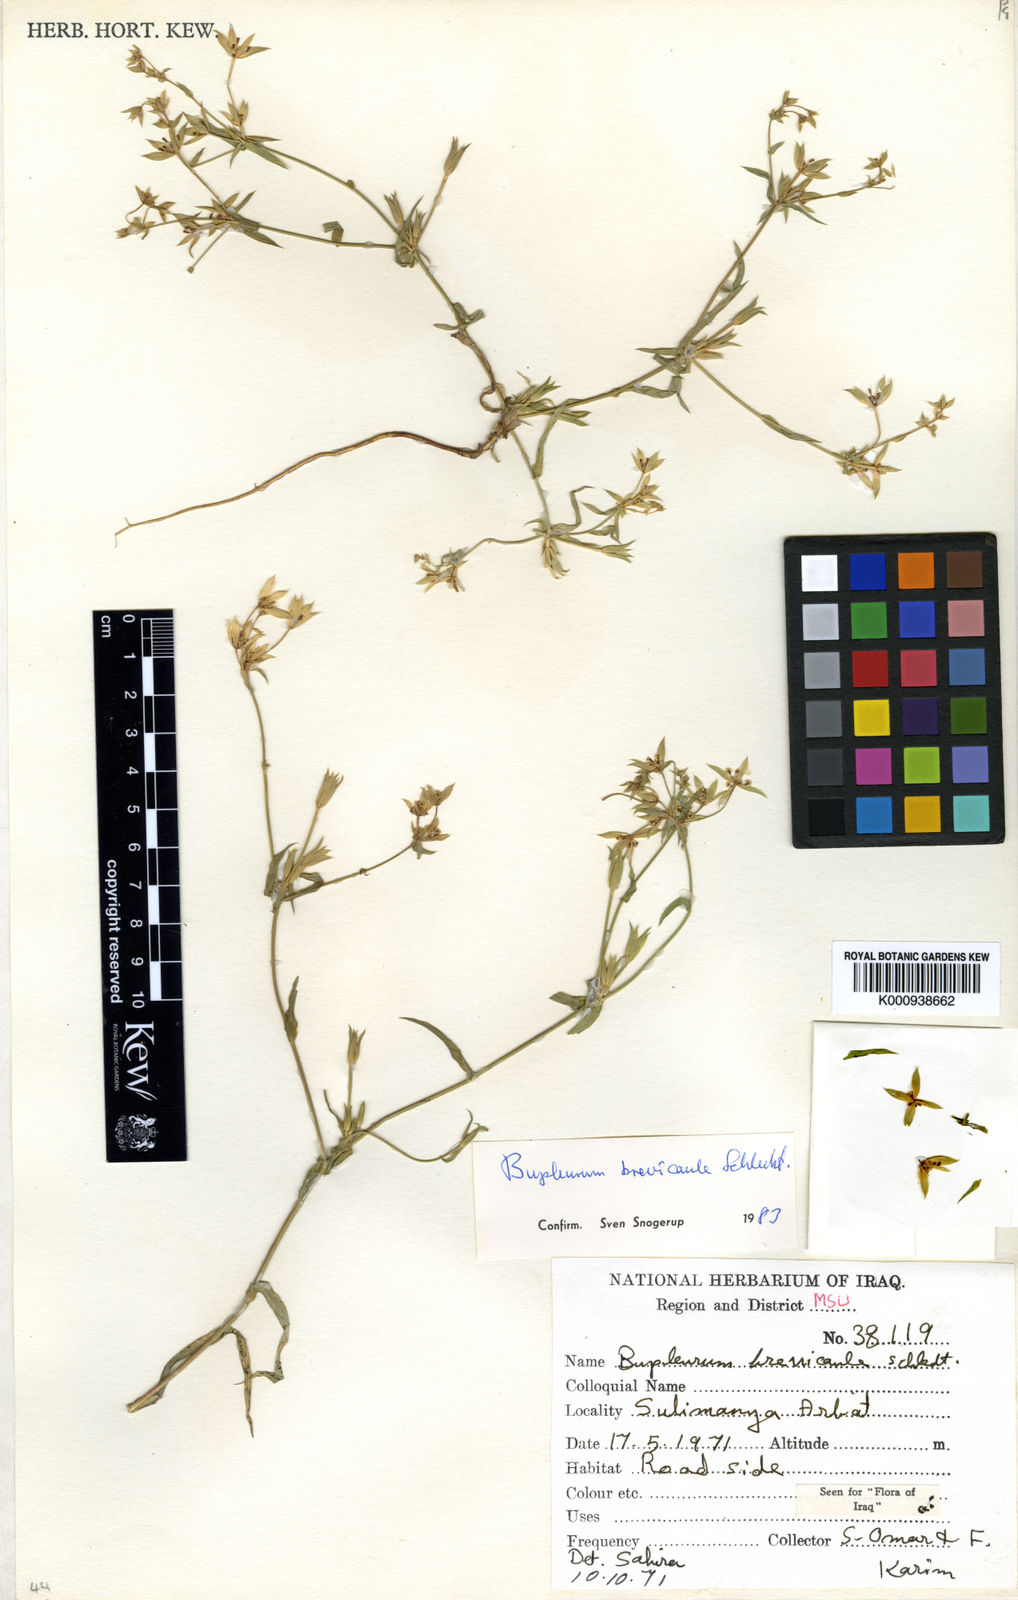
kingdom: Plantae
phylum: Tracheophyta
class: Magnoliopsida
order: Apiales
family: Apiaceae
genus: Bupleurum
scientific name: Bupleurum brevicaule
